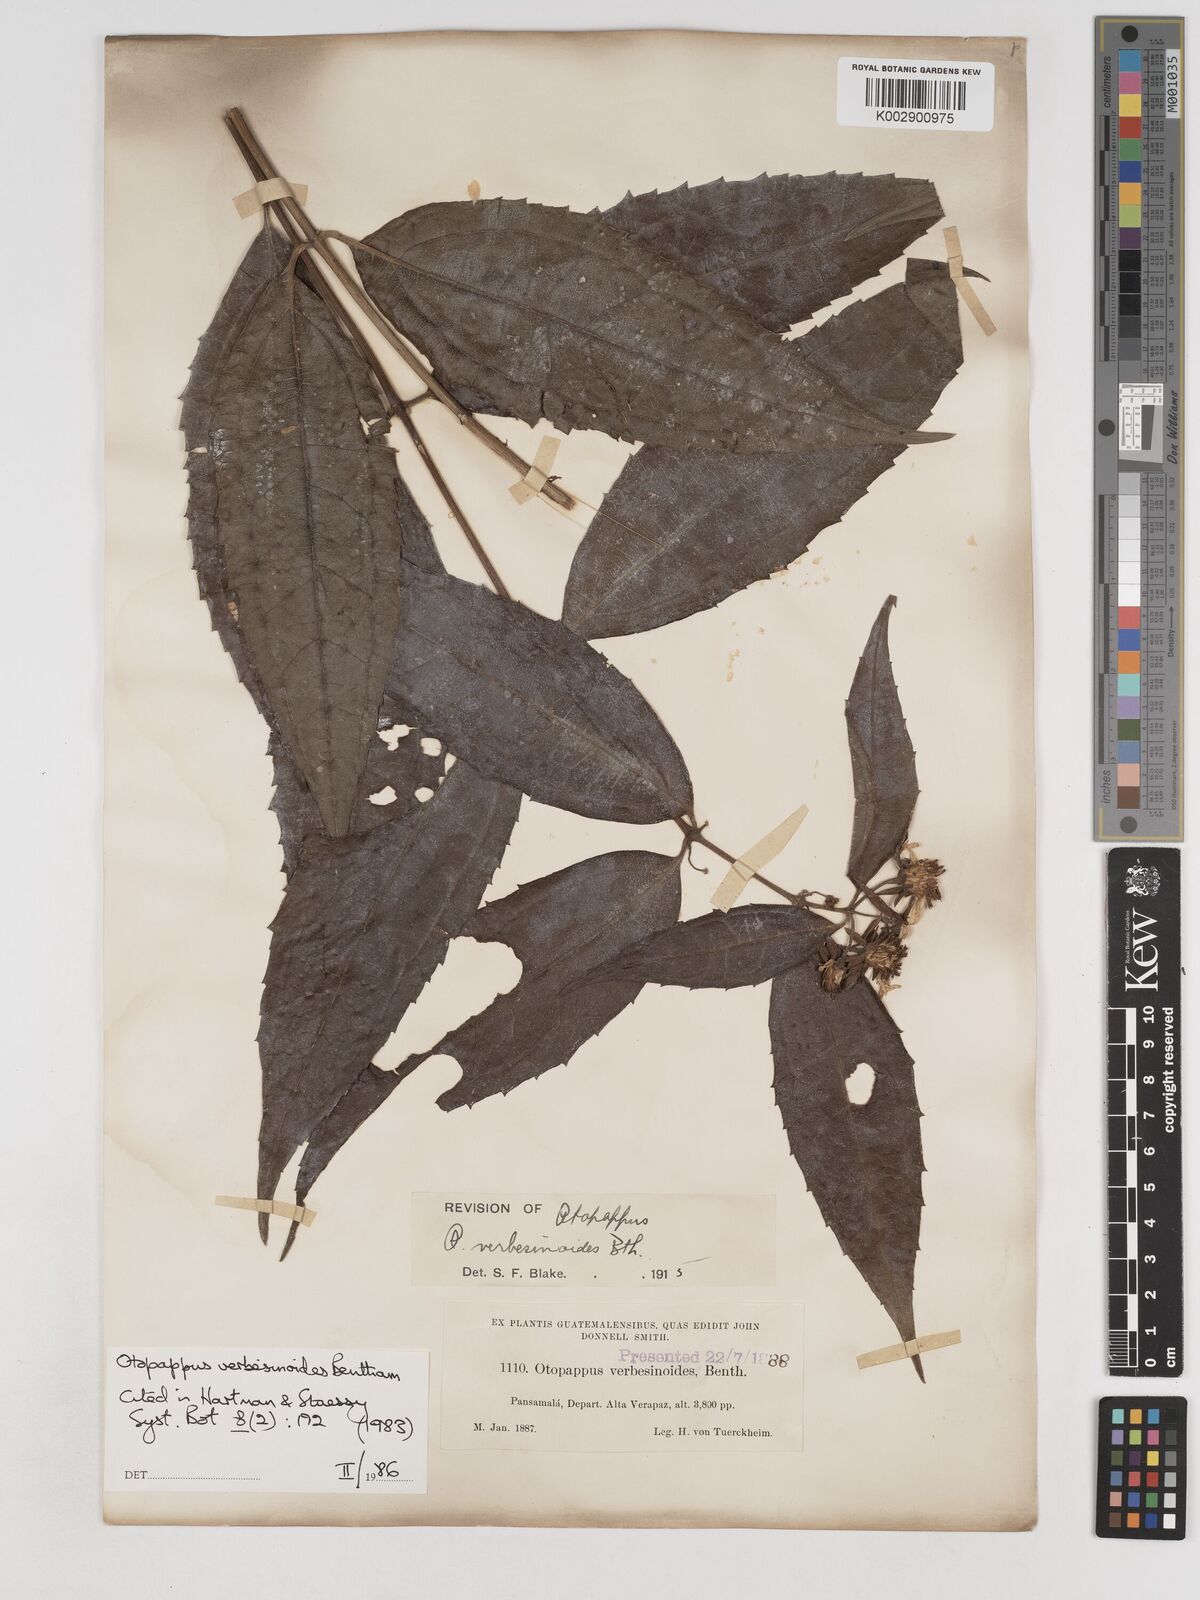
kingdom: Plantae
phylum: Tracheophyta
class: Magnoliopsida
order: Asterales
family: Asteraceae
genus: Otopappus
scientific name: Otopappus verbesinoides
